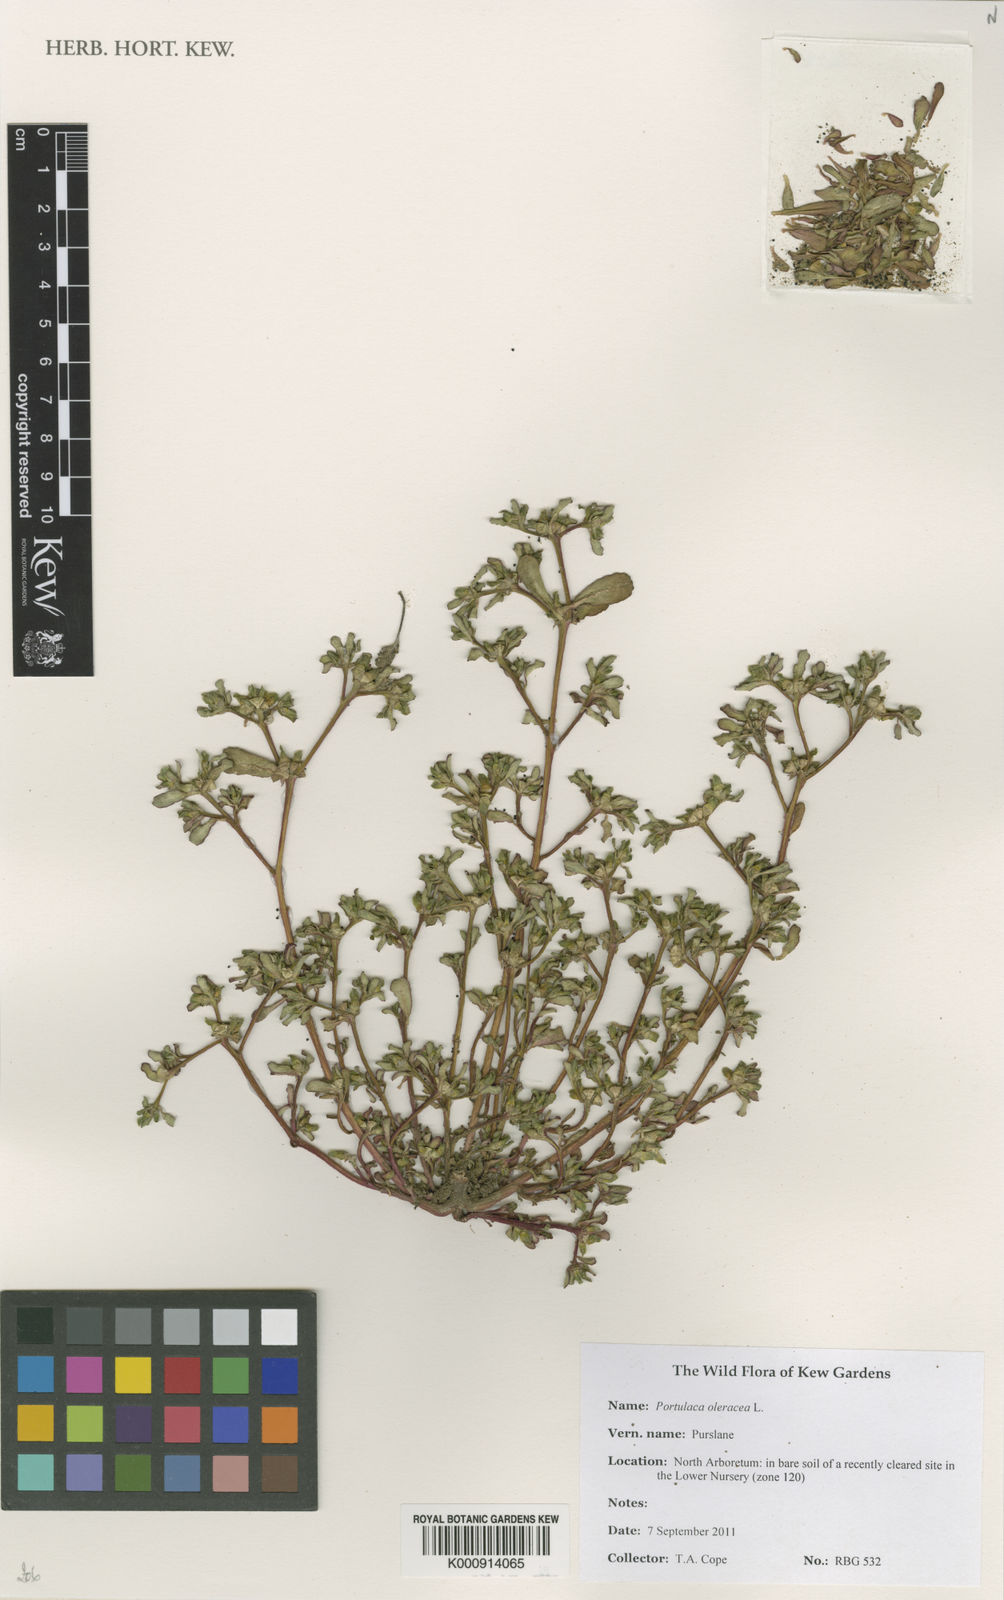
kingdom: Plantae
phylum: Tracheophyta
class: Magnoliopsida
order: Caryophyllales
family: Portulacaceae
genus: Portulaca
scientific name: Portulaca oleracea
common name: Common purslane
